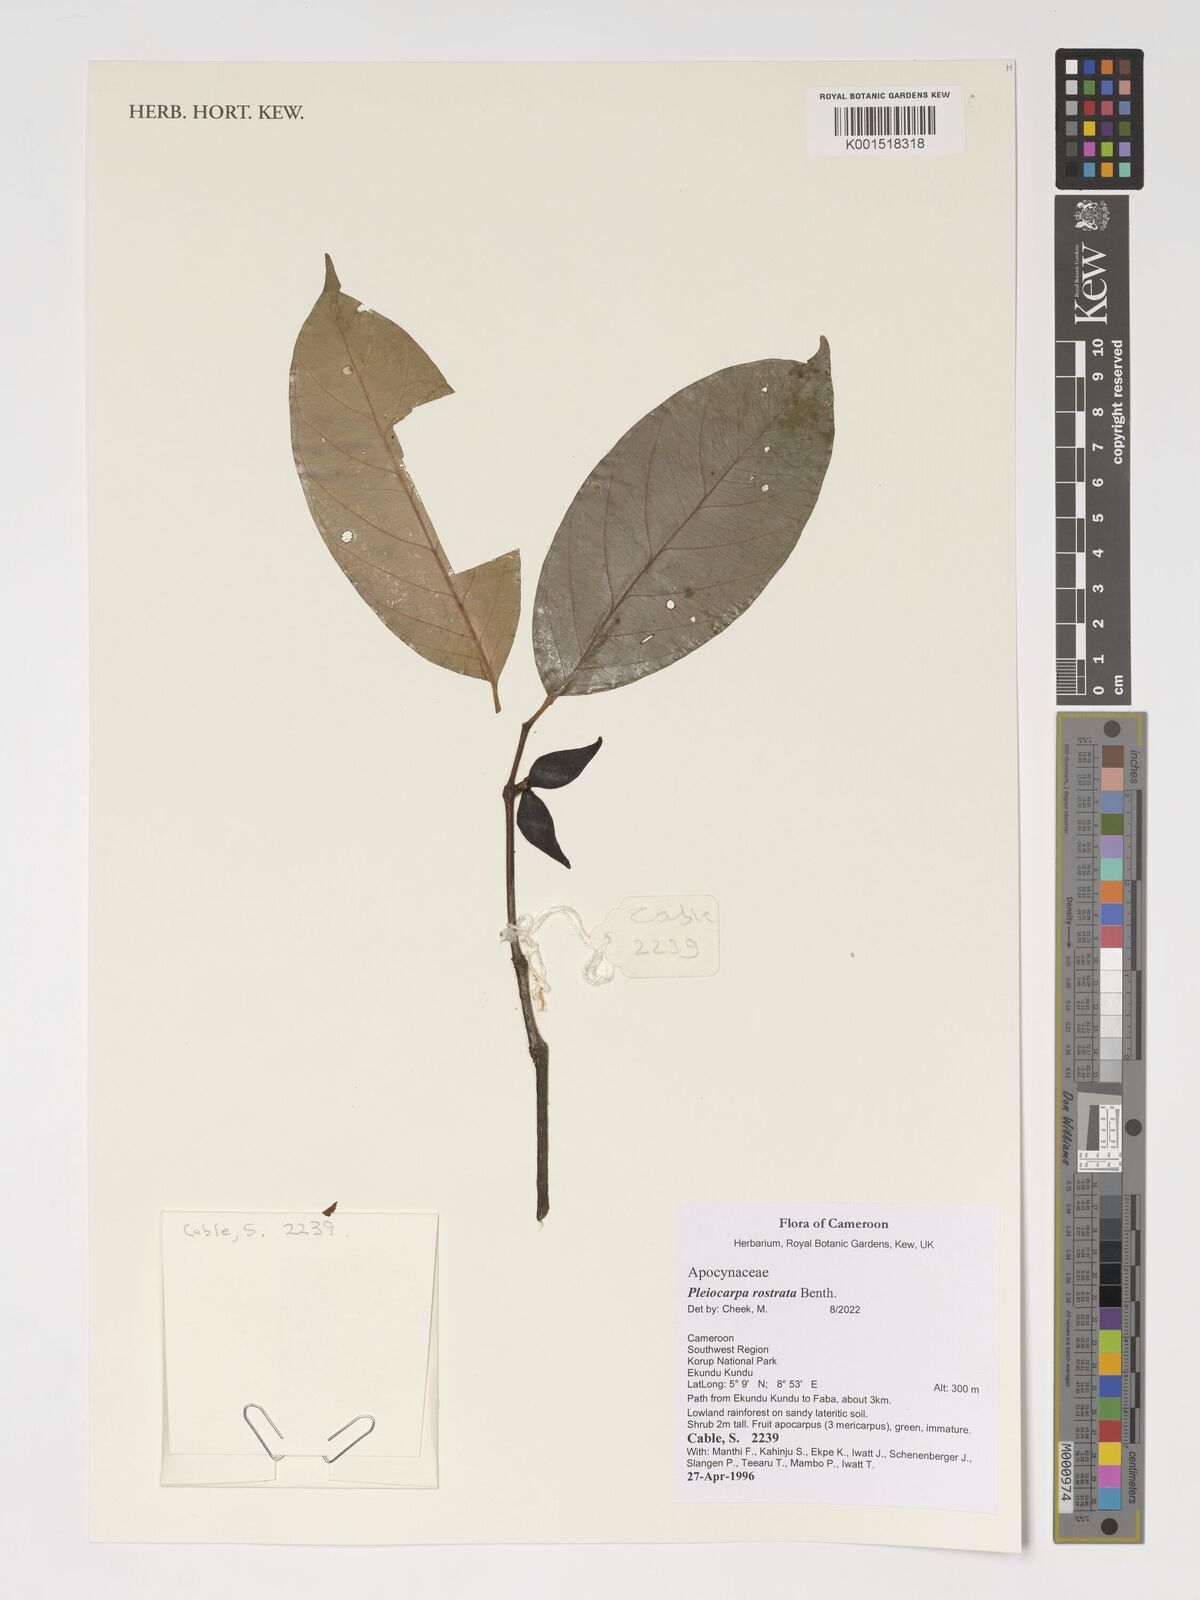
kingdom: Plantae
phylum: Tracheophyta
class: Magnoliopsida
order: Gentianales
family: Apocynaceae
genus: Pleiocarpa
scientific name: Pleiocarpa rostrata
